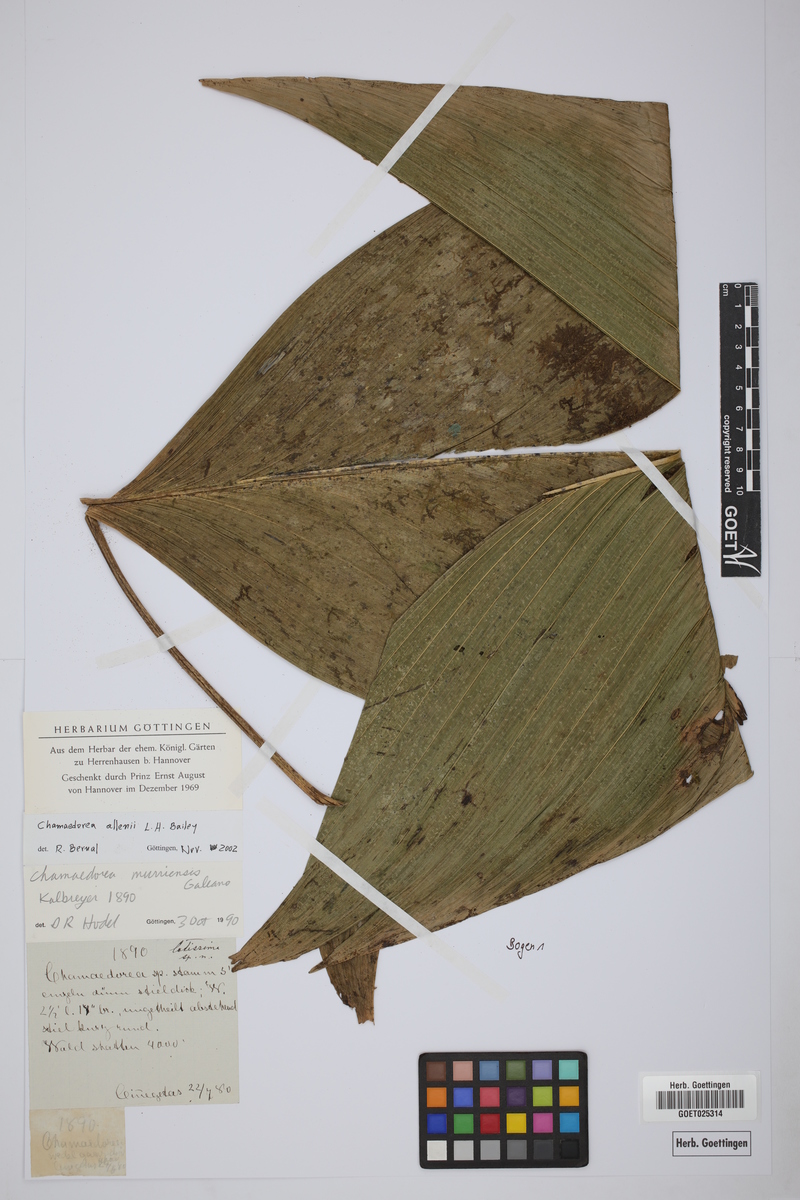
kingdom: Plantae
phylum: Tracheophyta
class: Liliopsida
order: Arecales
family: Arecaceae
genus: Chamaedorea
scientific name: Chamaedorea allenii
